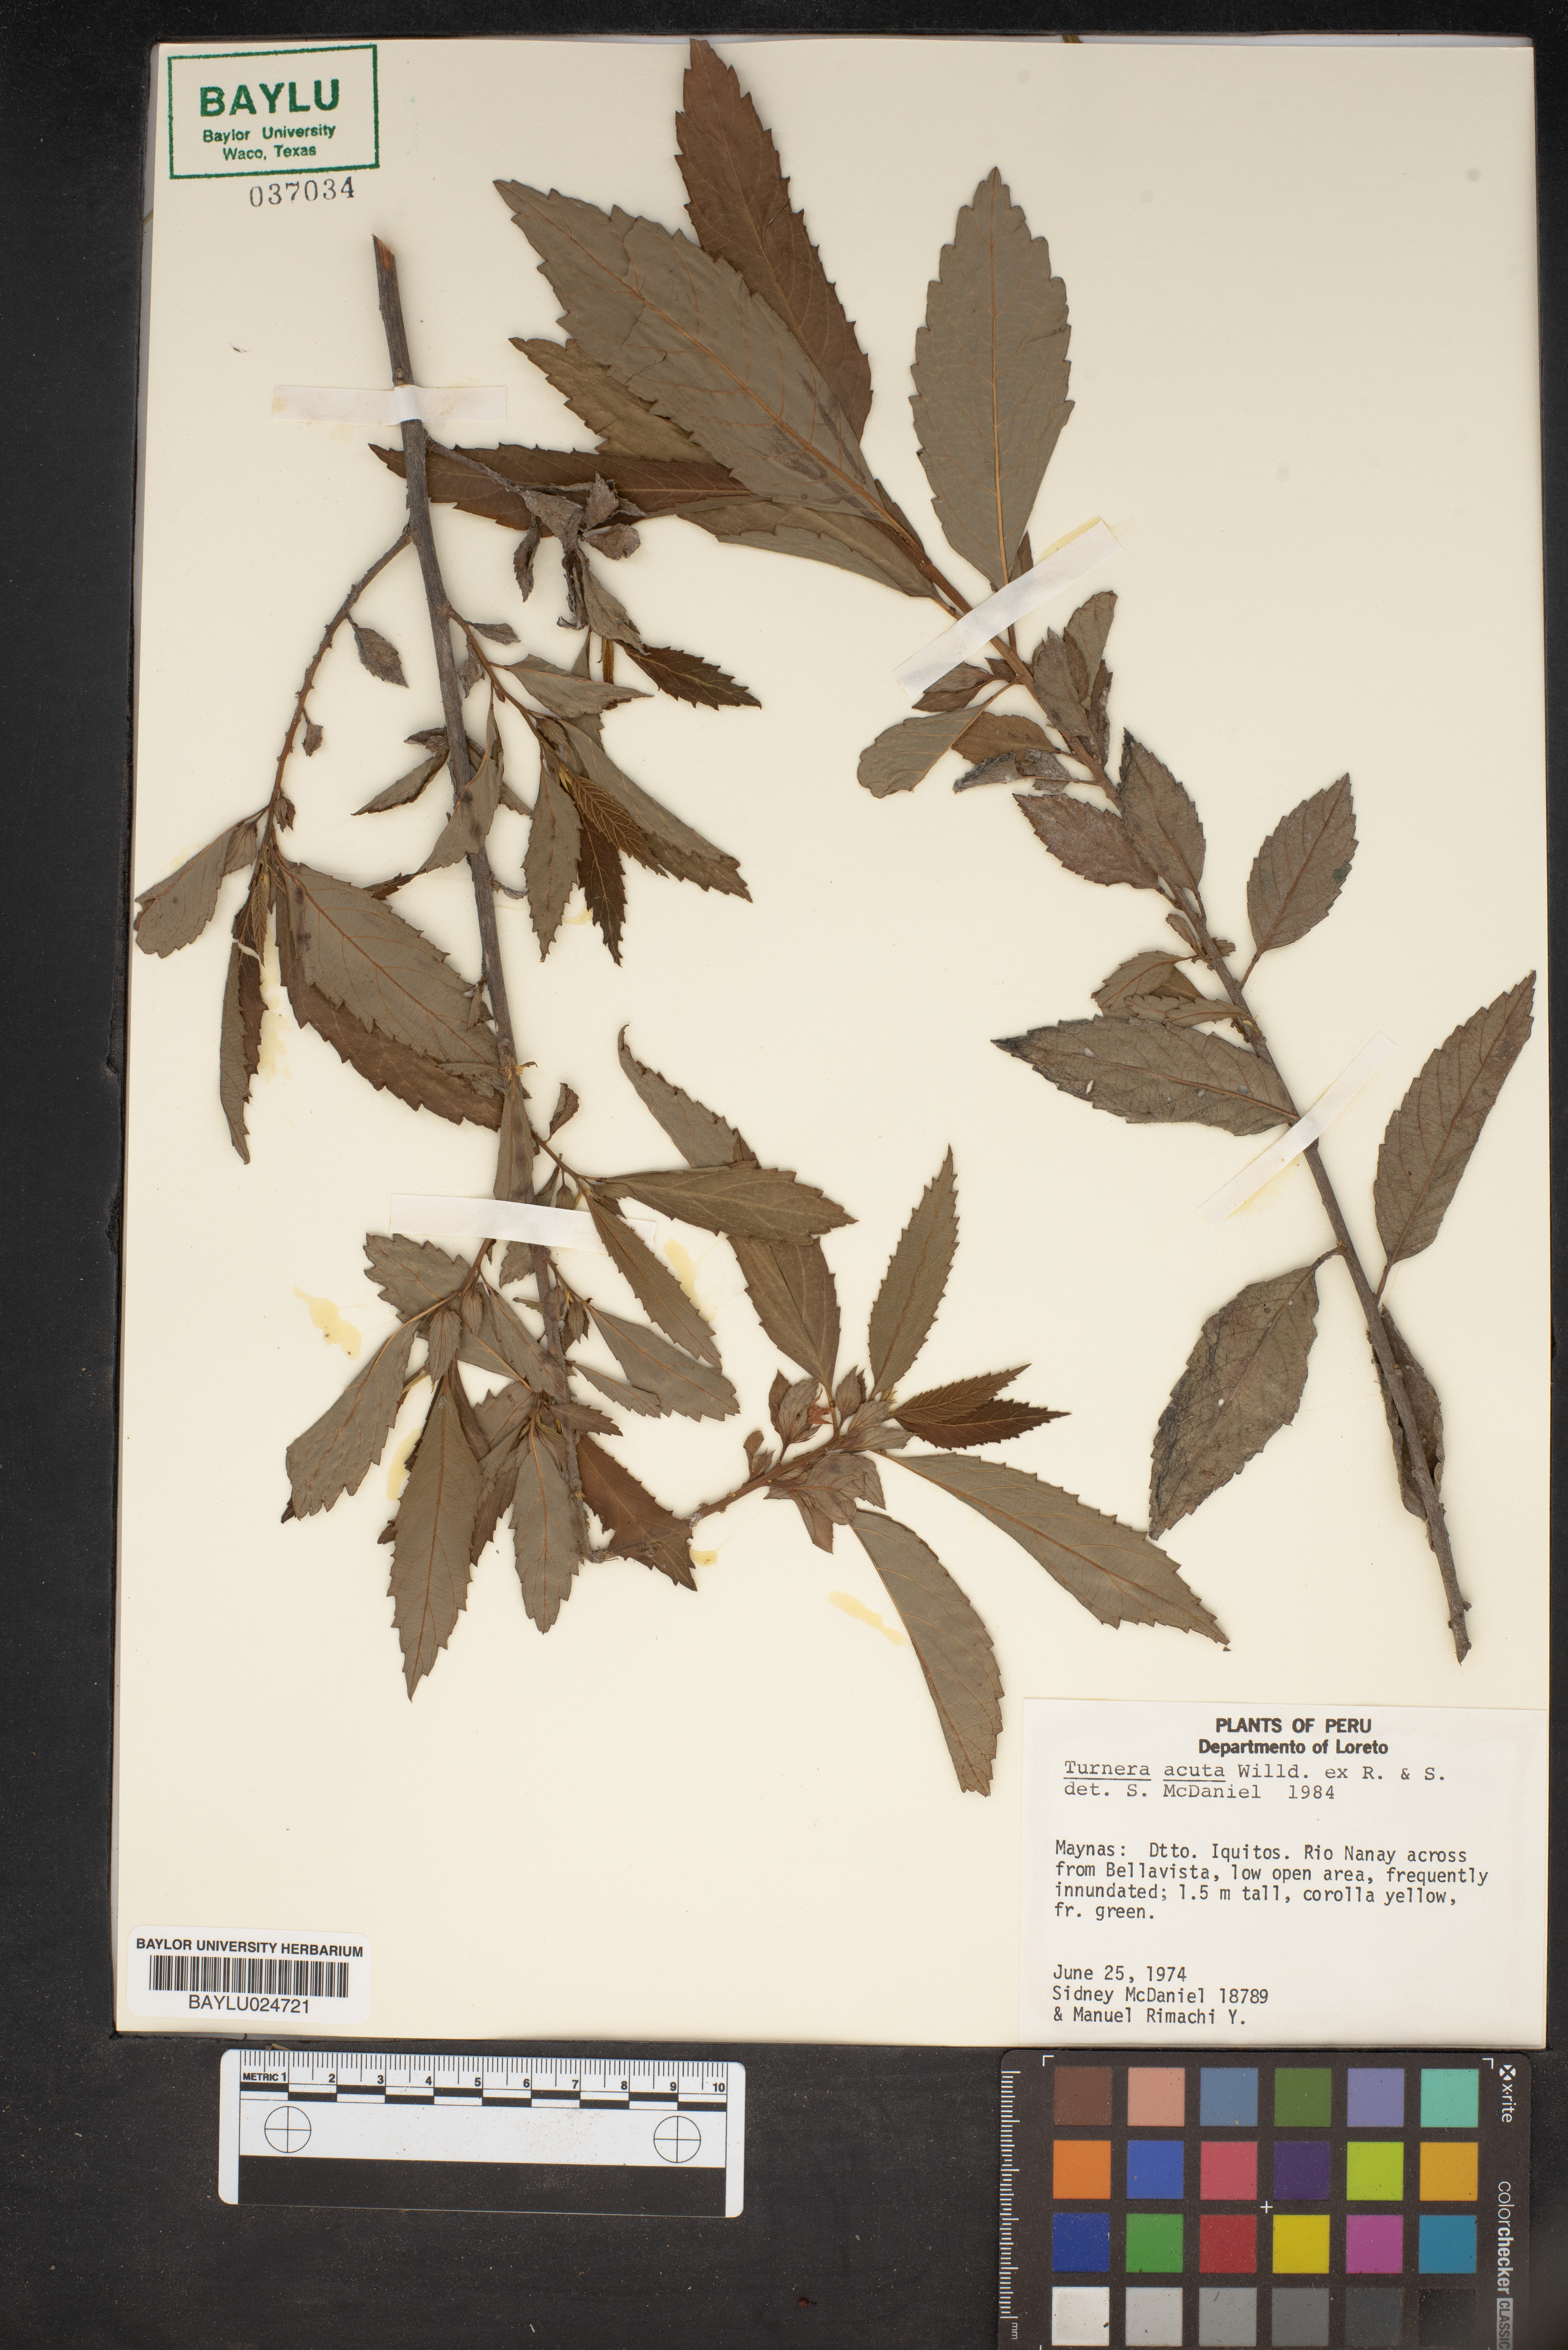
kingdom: Plantae
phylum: Tracheophyta
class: Magnoliopsida
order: Malpighiales
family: Turneraceae
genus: Turnera
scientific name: Turnera acuta
